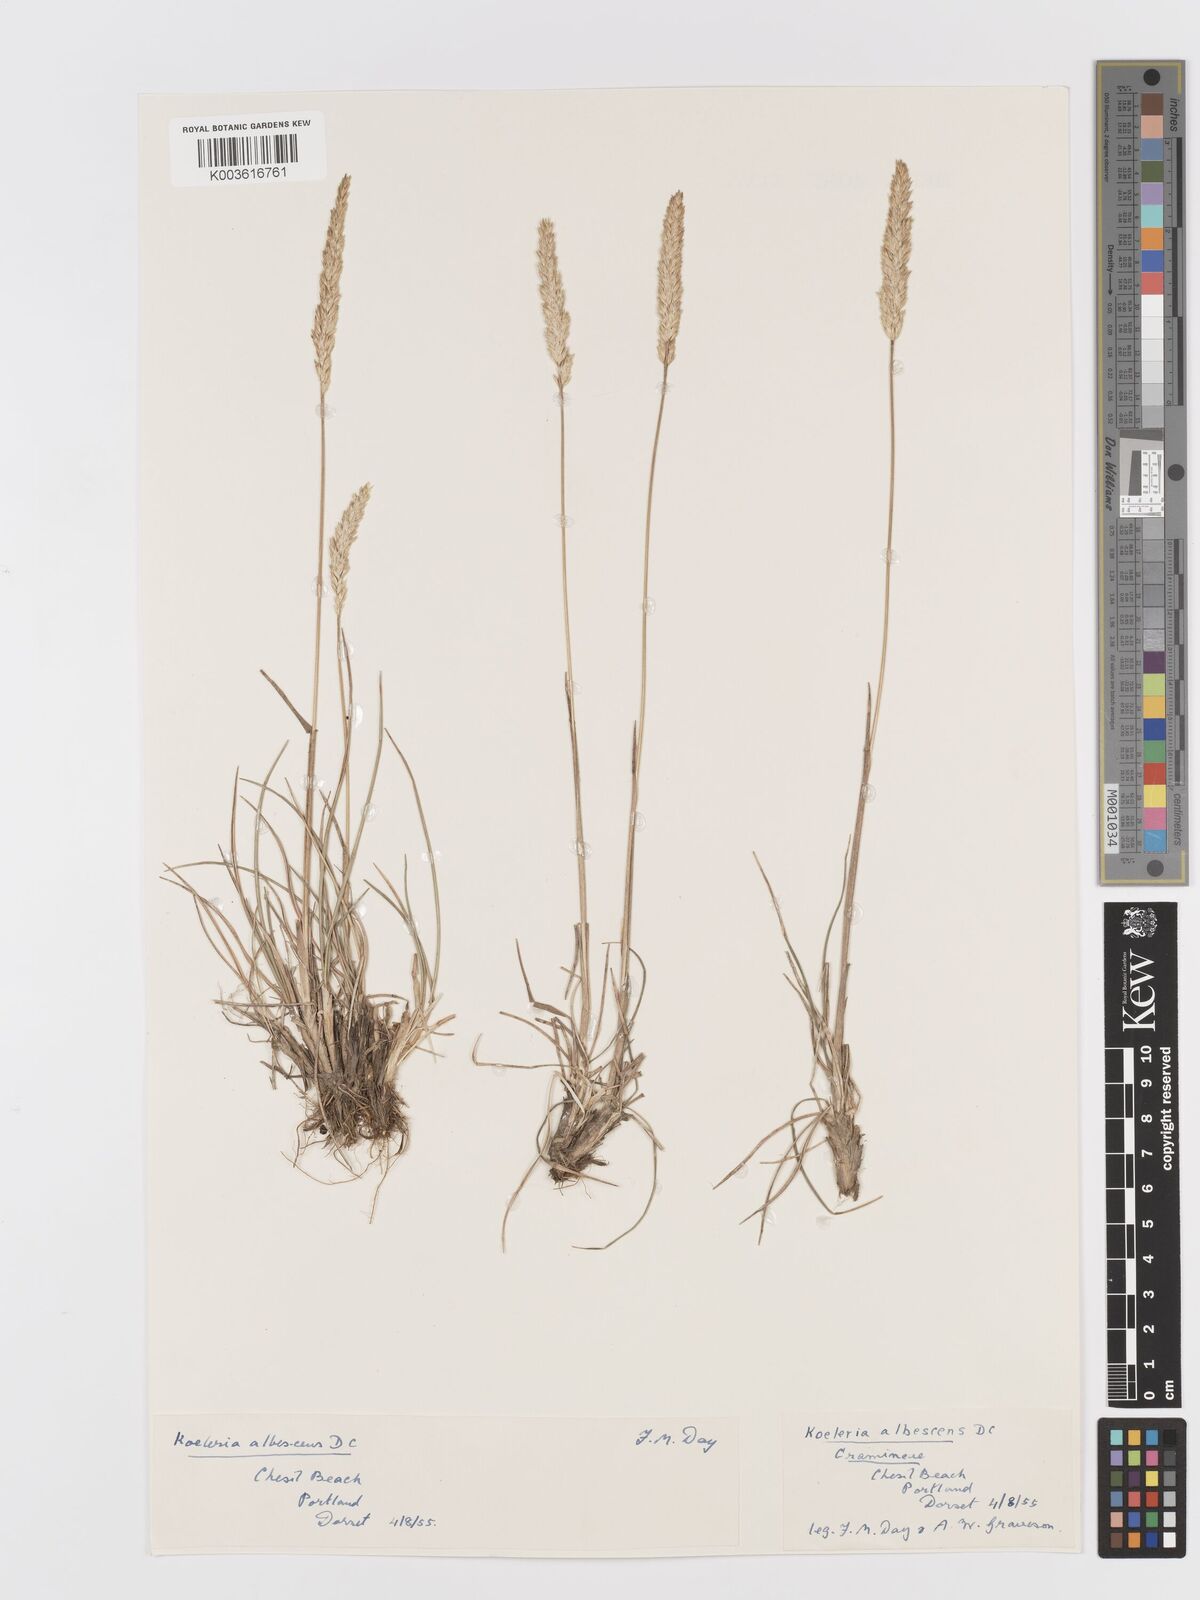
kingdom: Plantae
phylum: Tracheophyta
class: Liliopsida
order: Poales
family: Poaceae
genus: Koeleria
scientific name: Koeleria
